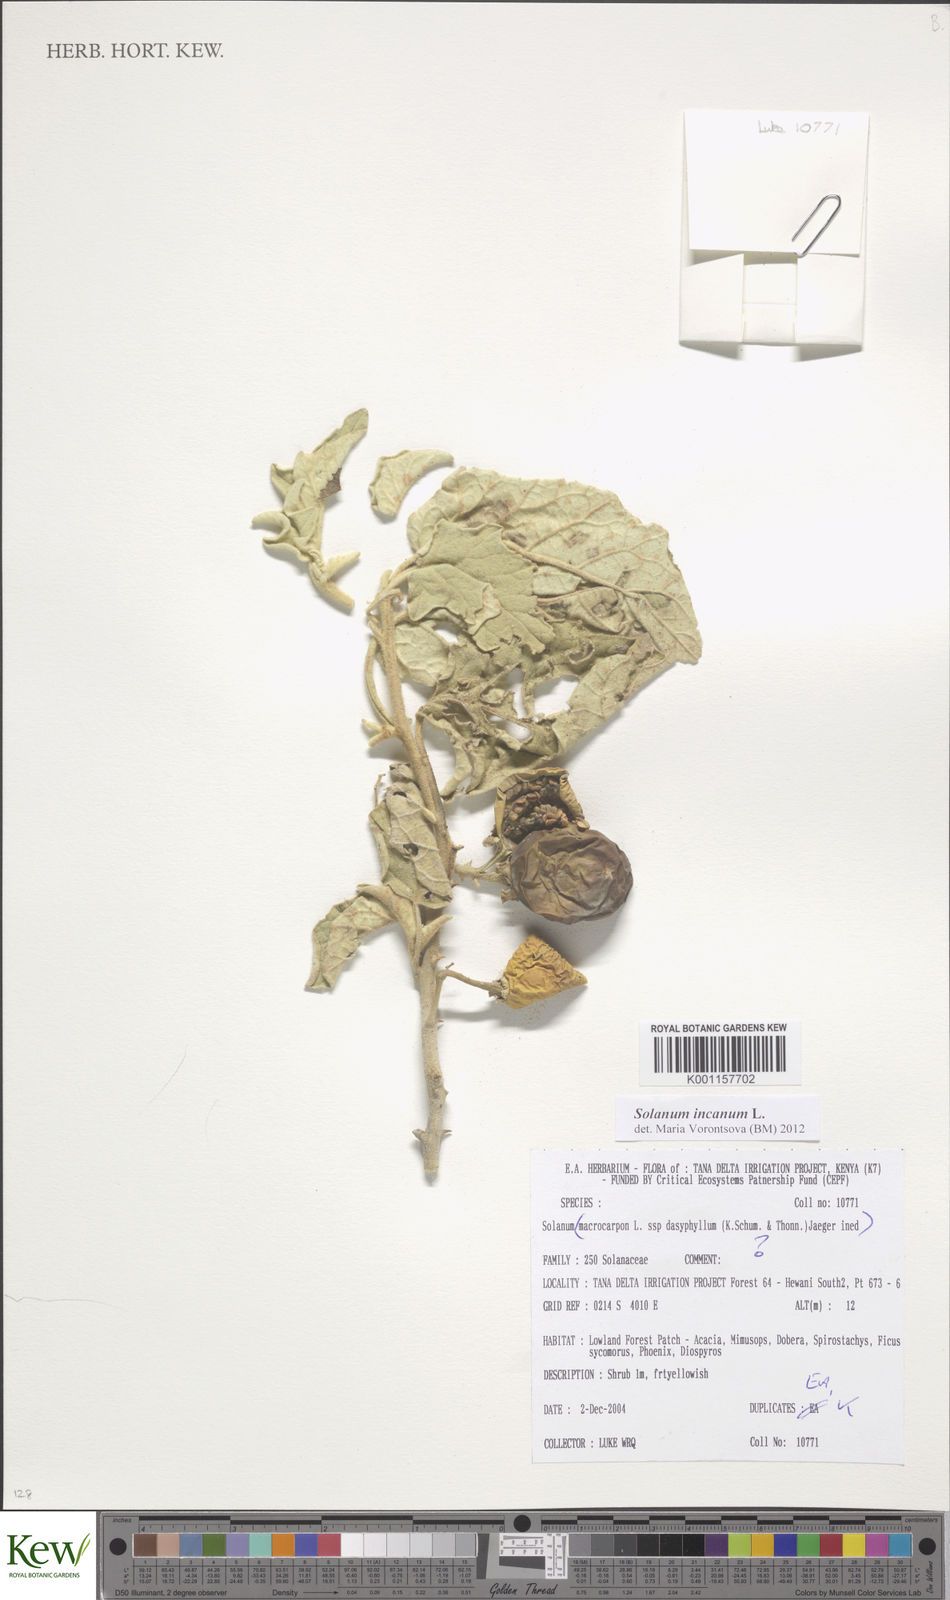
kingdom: Plantae
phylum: Tracheophyta
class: Magnoliopsida
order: Solanales
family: Solanaceae
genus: Solanum
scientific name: Solanum incanum
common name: Bitter apple
